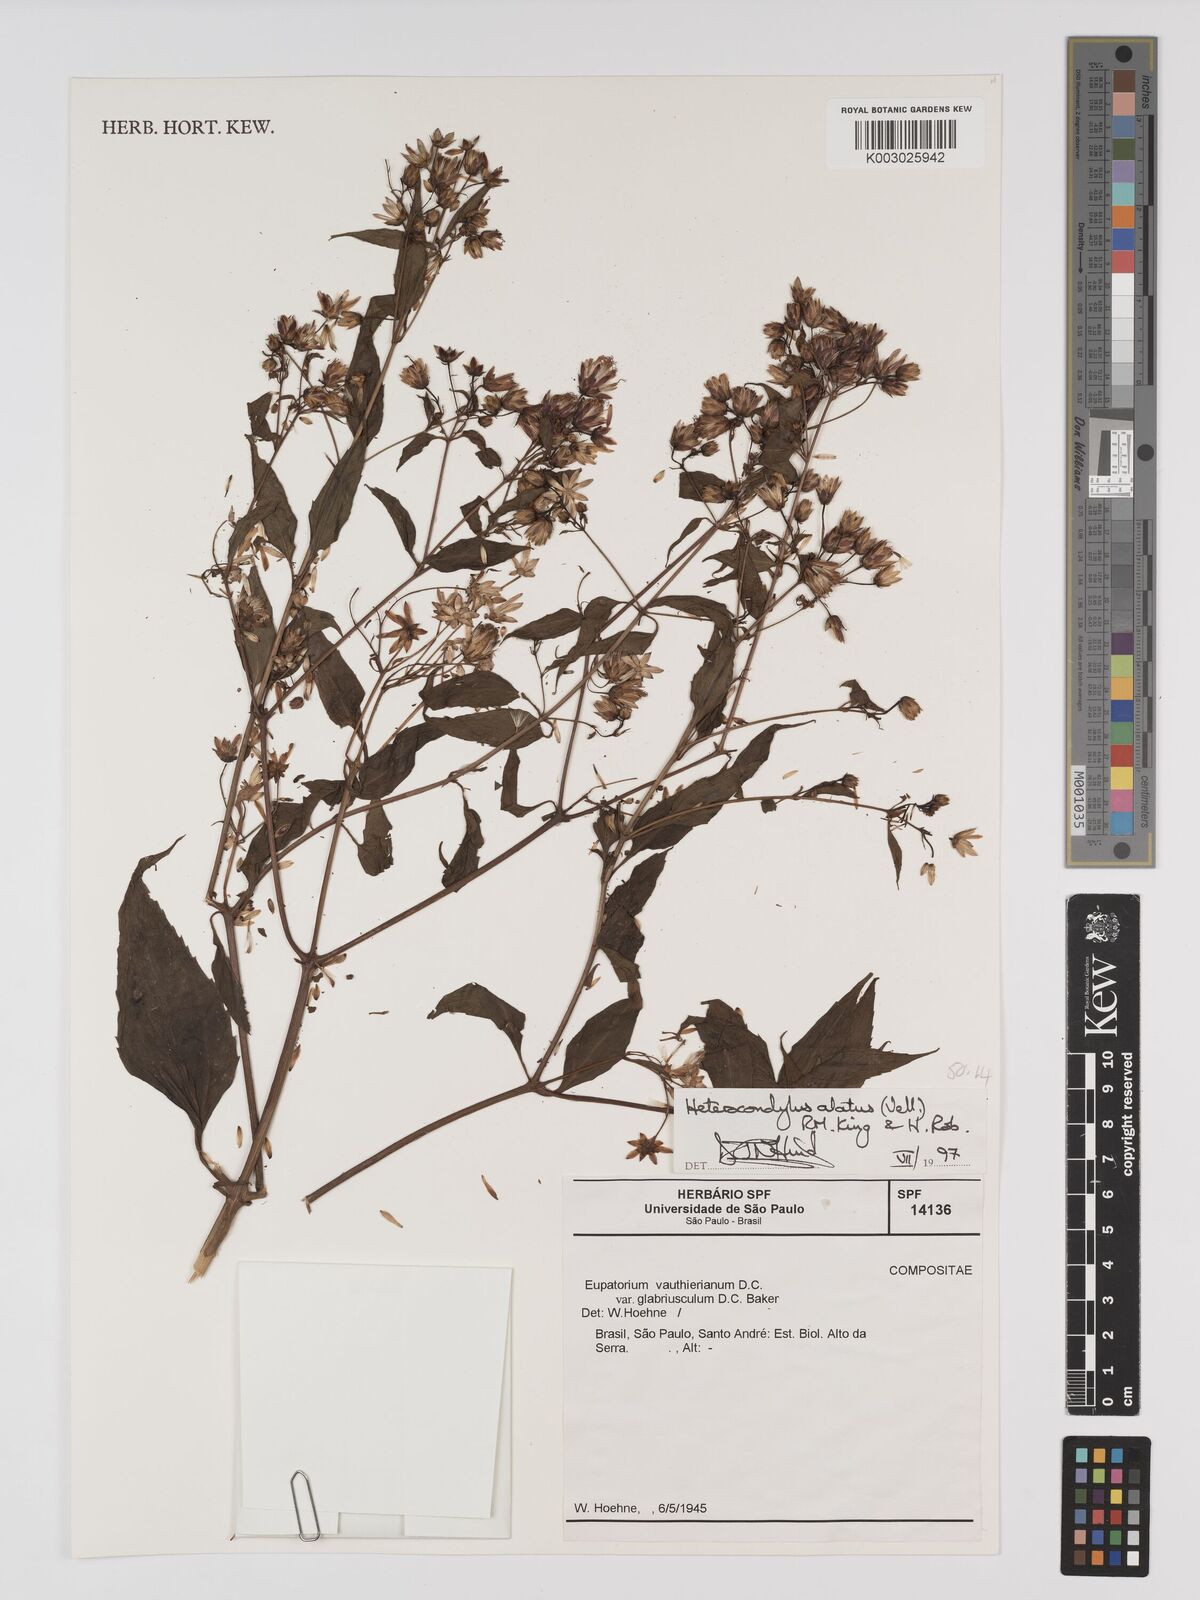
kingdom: Plantae
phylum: Tracheophyta
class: Magnoliopsida
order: Asterales
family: Asteraceae
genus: Heterocondylus
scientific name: Heterocondylus alatus
